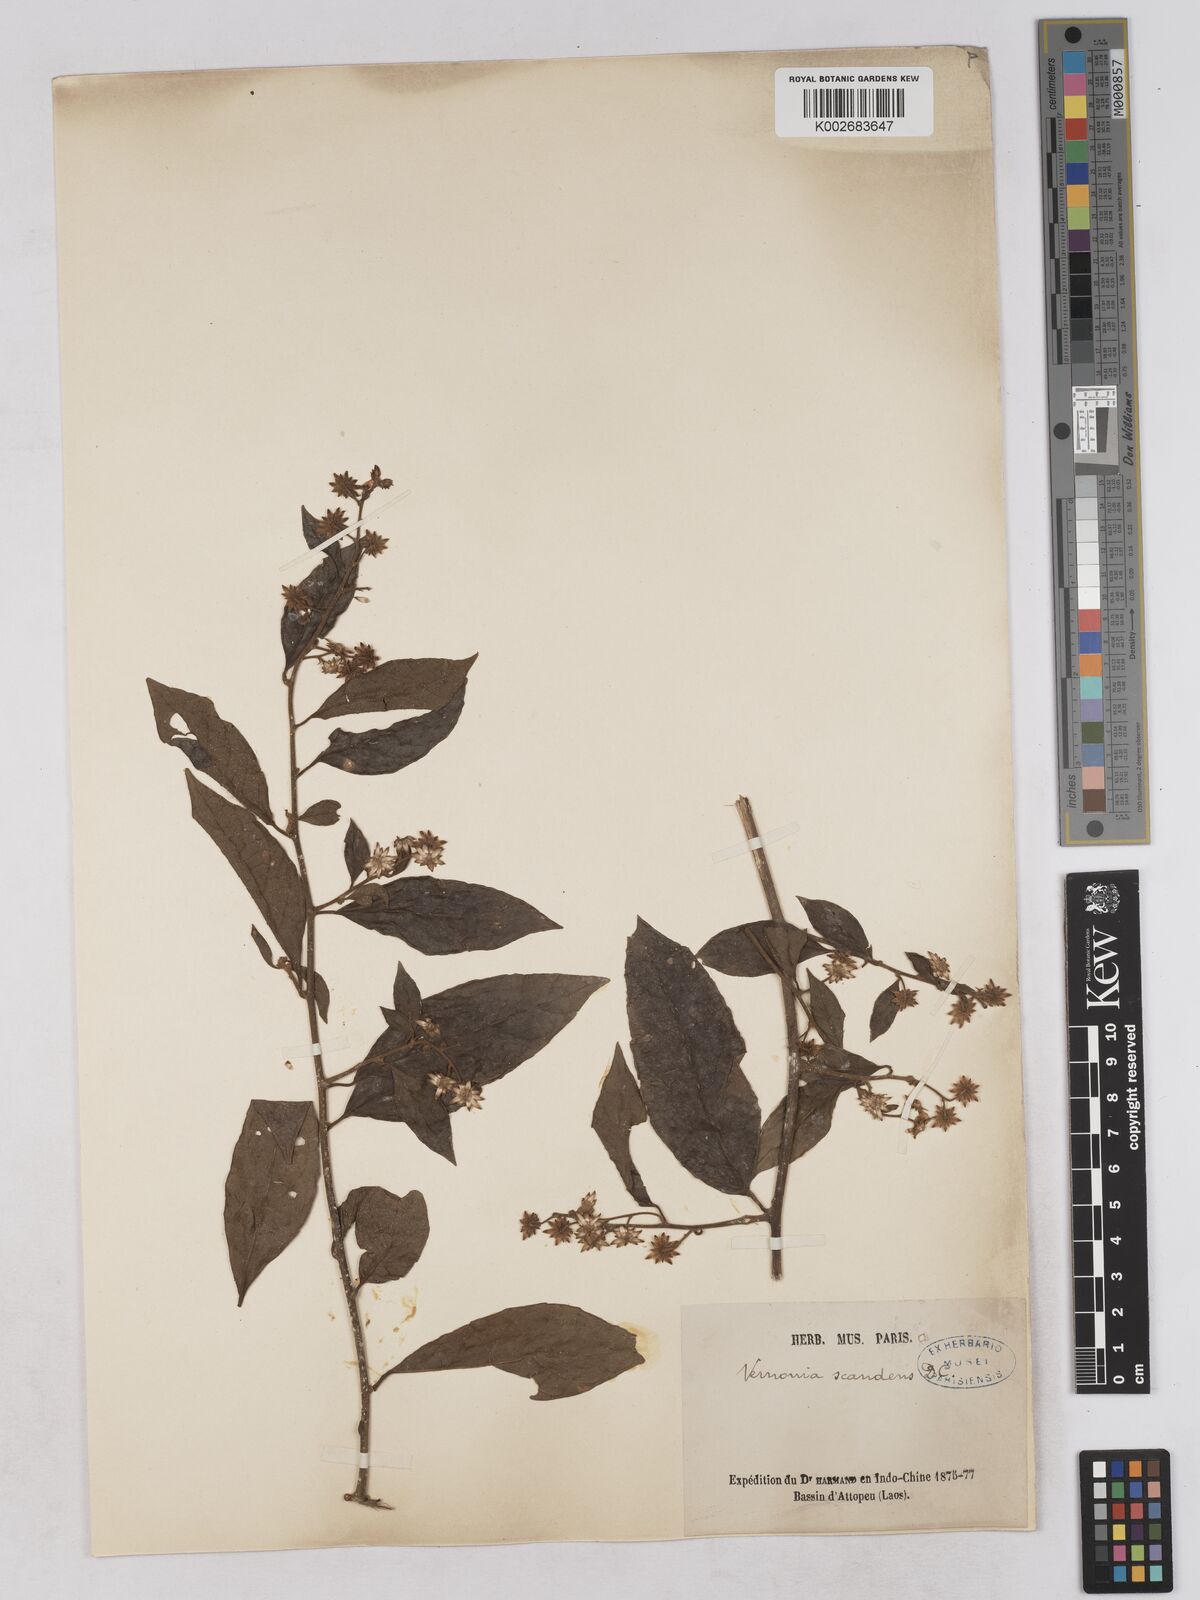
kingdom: Plantae
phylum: Tracheophyta
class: Magnoliopsida
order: Asterales
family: Asteraceae
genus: Decaneuropsis
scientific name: Decaneuropsis obovata
